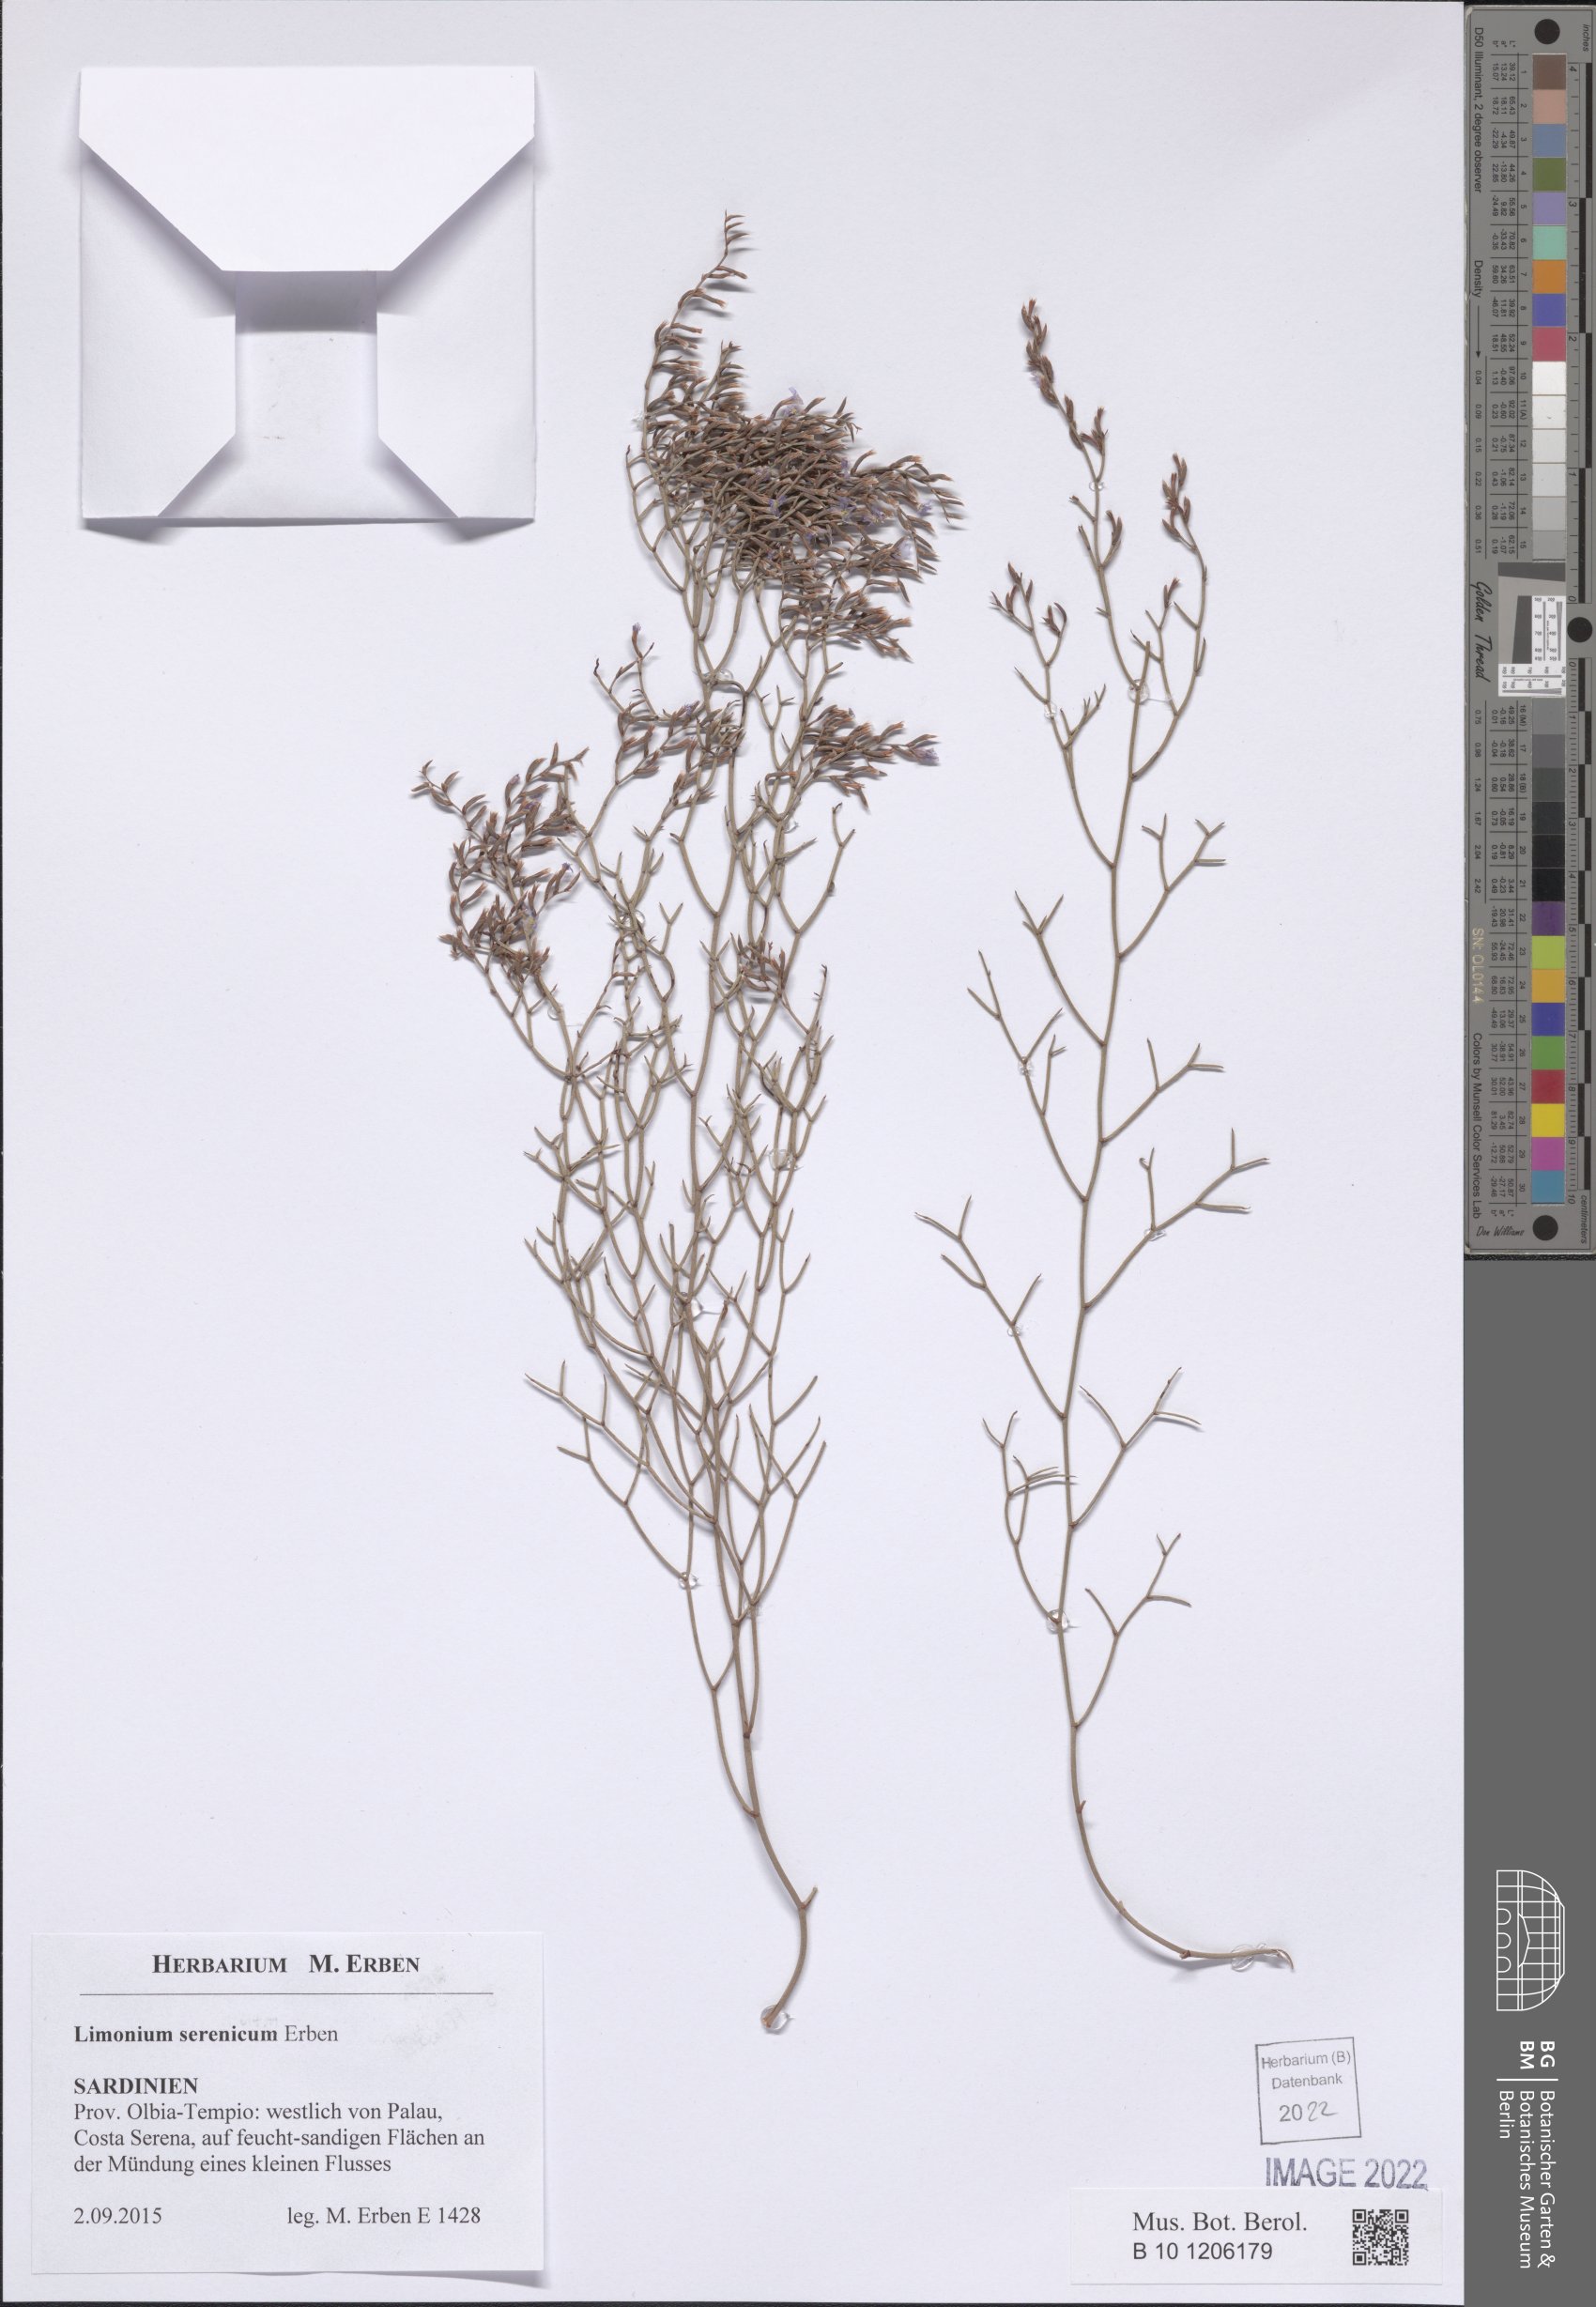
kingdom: Plantae
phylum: Tracheophyta
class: Magnoliopsida
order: Caryophyllales
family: Plumbaginaceae
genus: Goniolimon
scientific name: Goniolimon incanum
